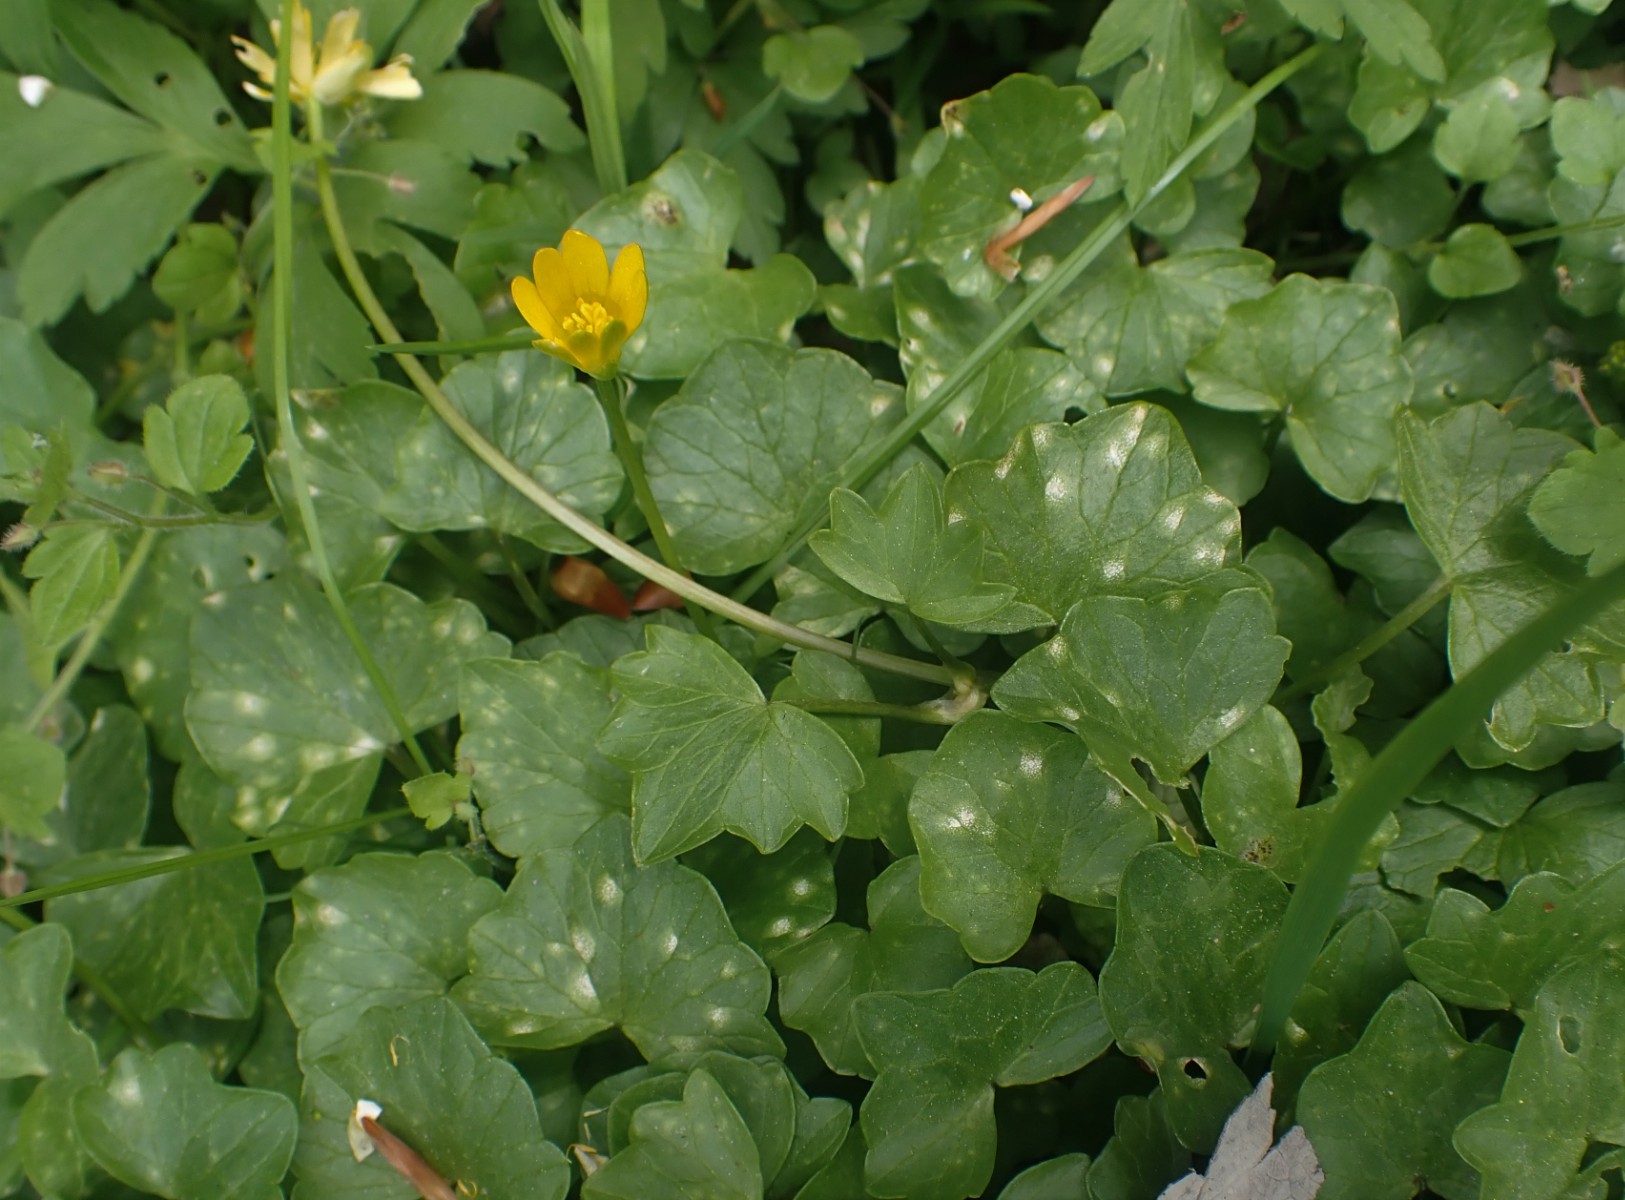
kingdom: Fungi
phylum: Basidiomycota
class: Exobasidiomycetes
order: Entylomatales
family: Entylomataceae
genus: Entyloma
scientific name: Entyloma ficariae
